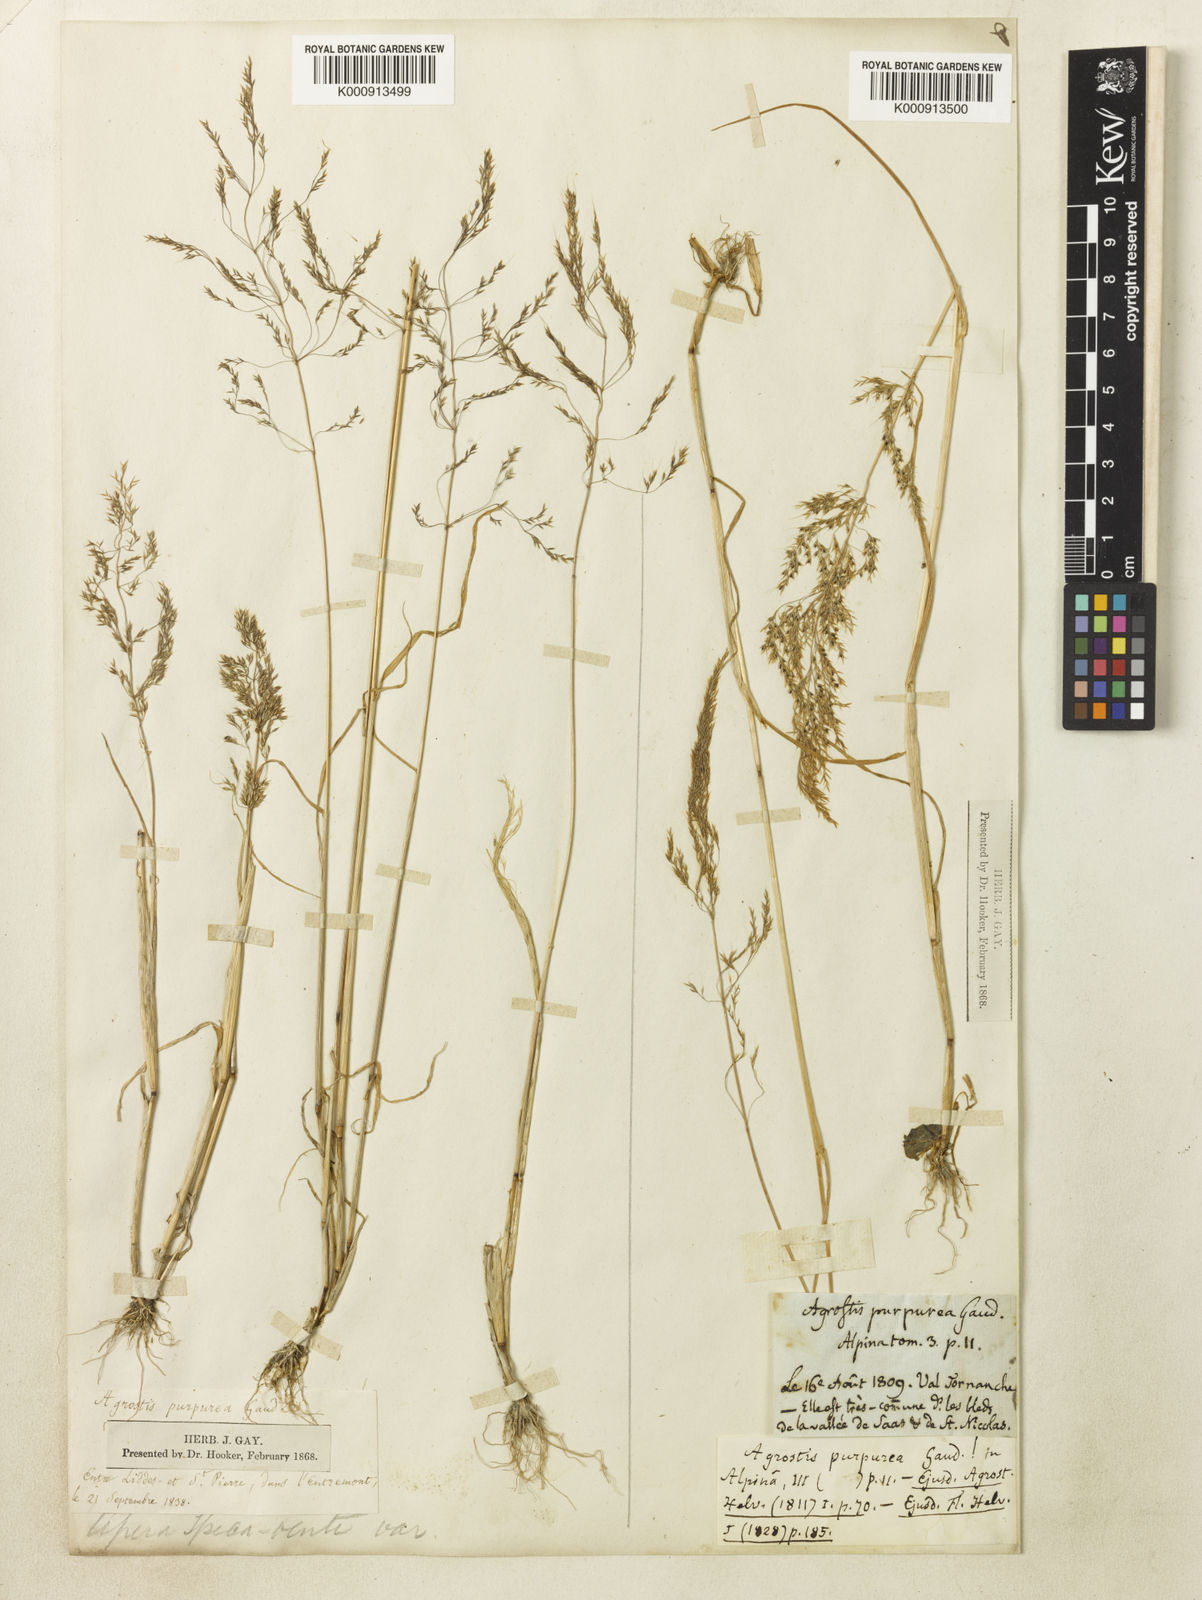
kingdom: Plantae
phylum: Tracheophyta
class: Liliopsida
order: Poales
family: Poaceae
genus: Apera
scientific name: Apera spica-venti
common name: Loose silky-bent
